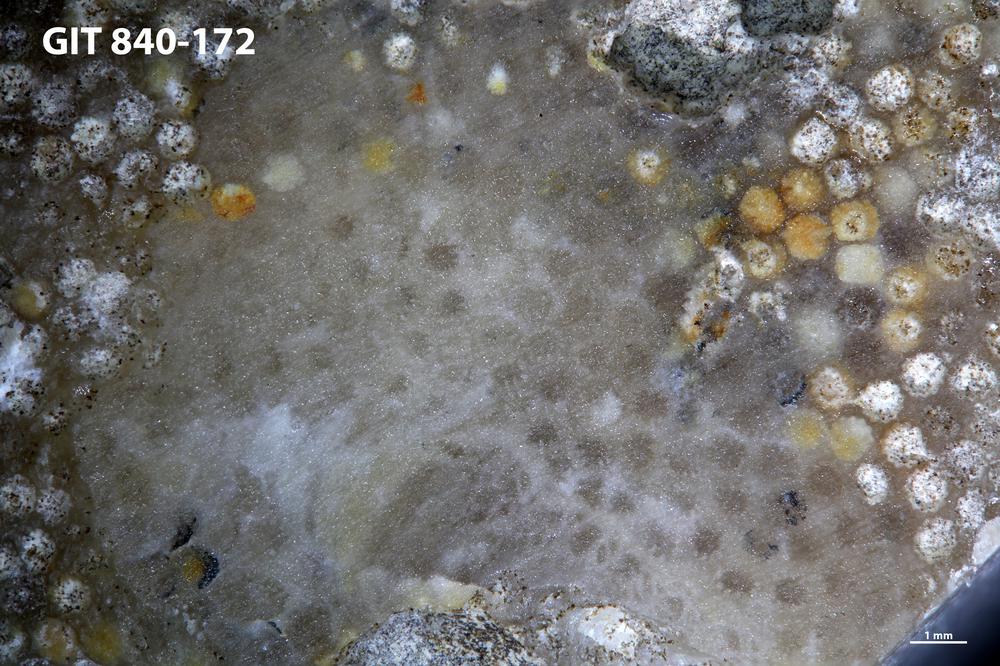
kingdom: Animalia
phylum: Cnidaria
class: Anthozoa
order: Heliolitina
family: Proheliolitidae
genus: Protoheliolites
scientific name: Protoheliolites
